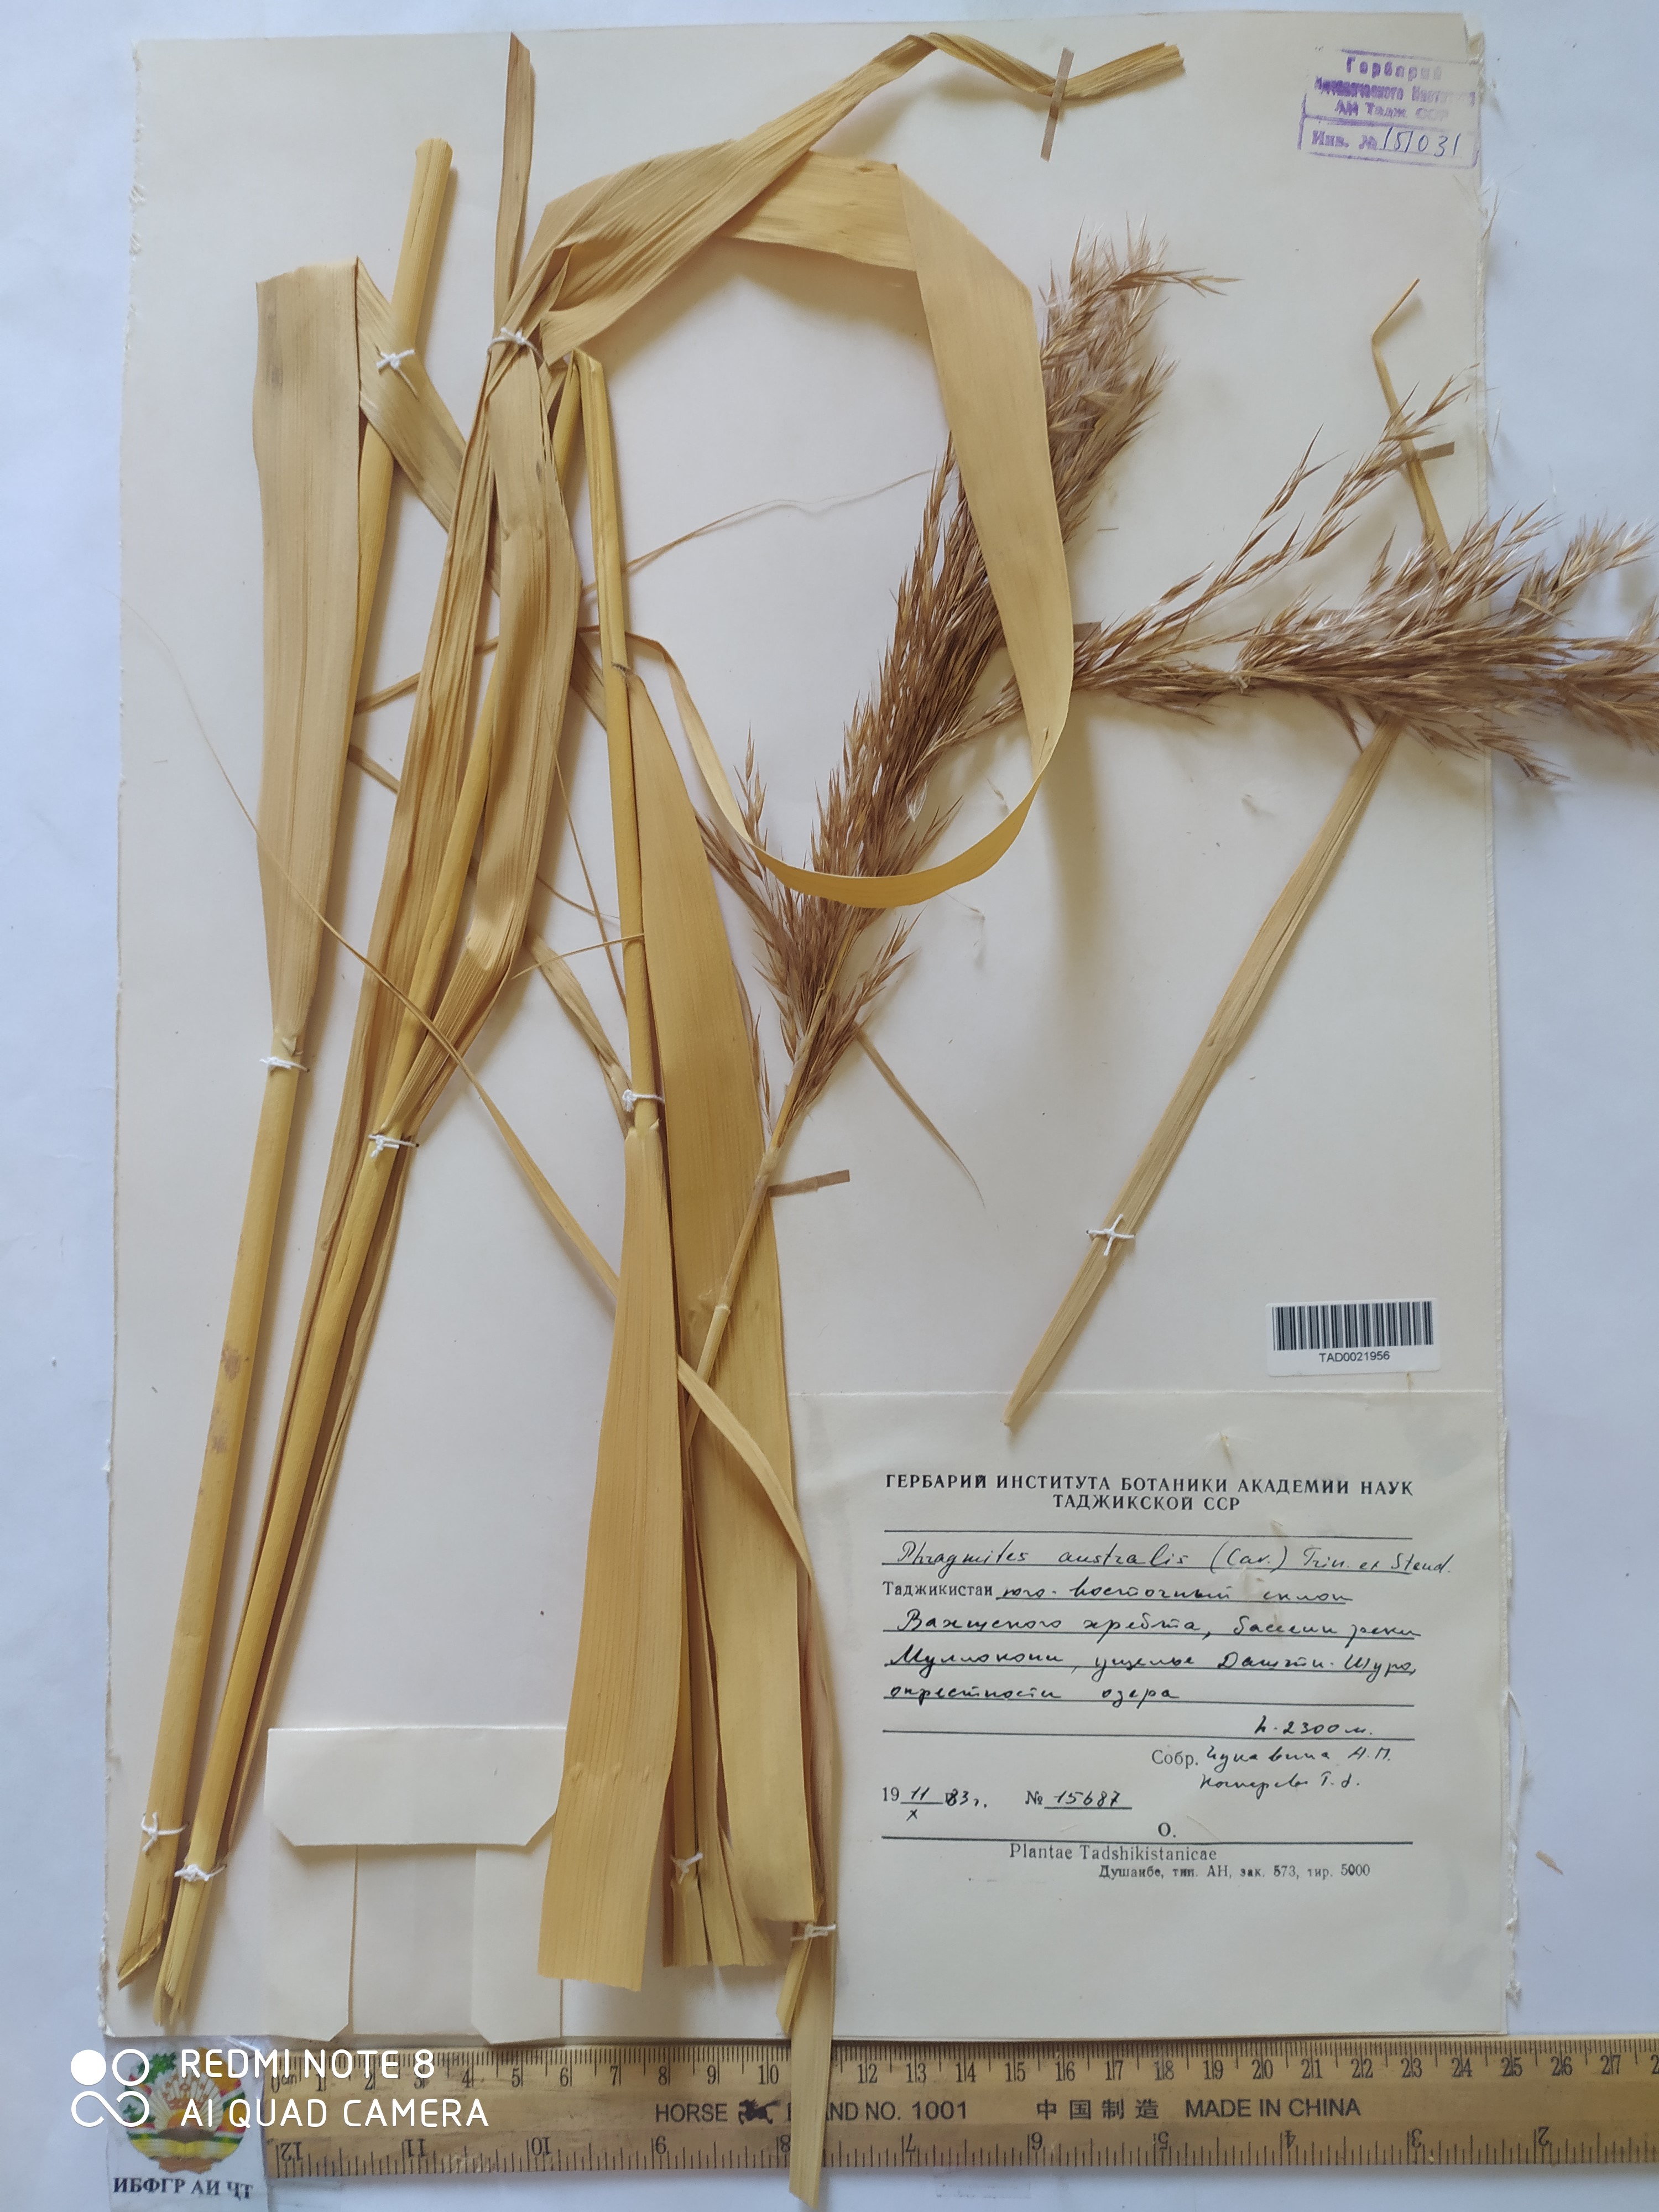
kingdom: Plantae
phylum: Tracheophyta
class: Liliopsida
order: Poales
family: Poaceae
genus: Phragmites
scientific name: Phragmites australis
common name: Common reed
